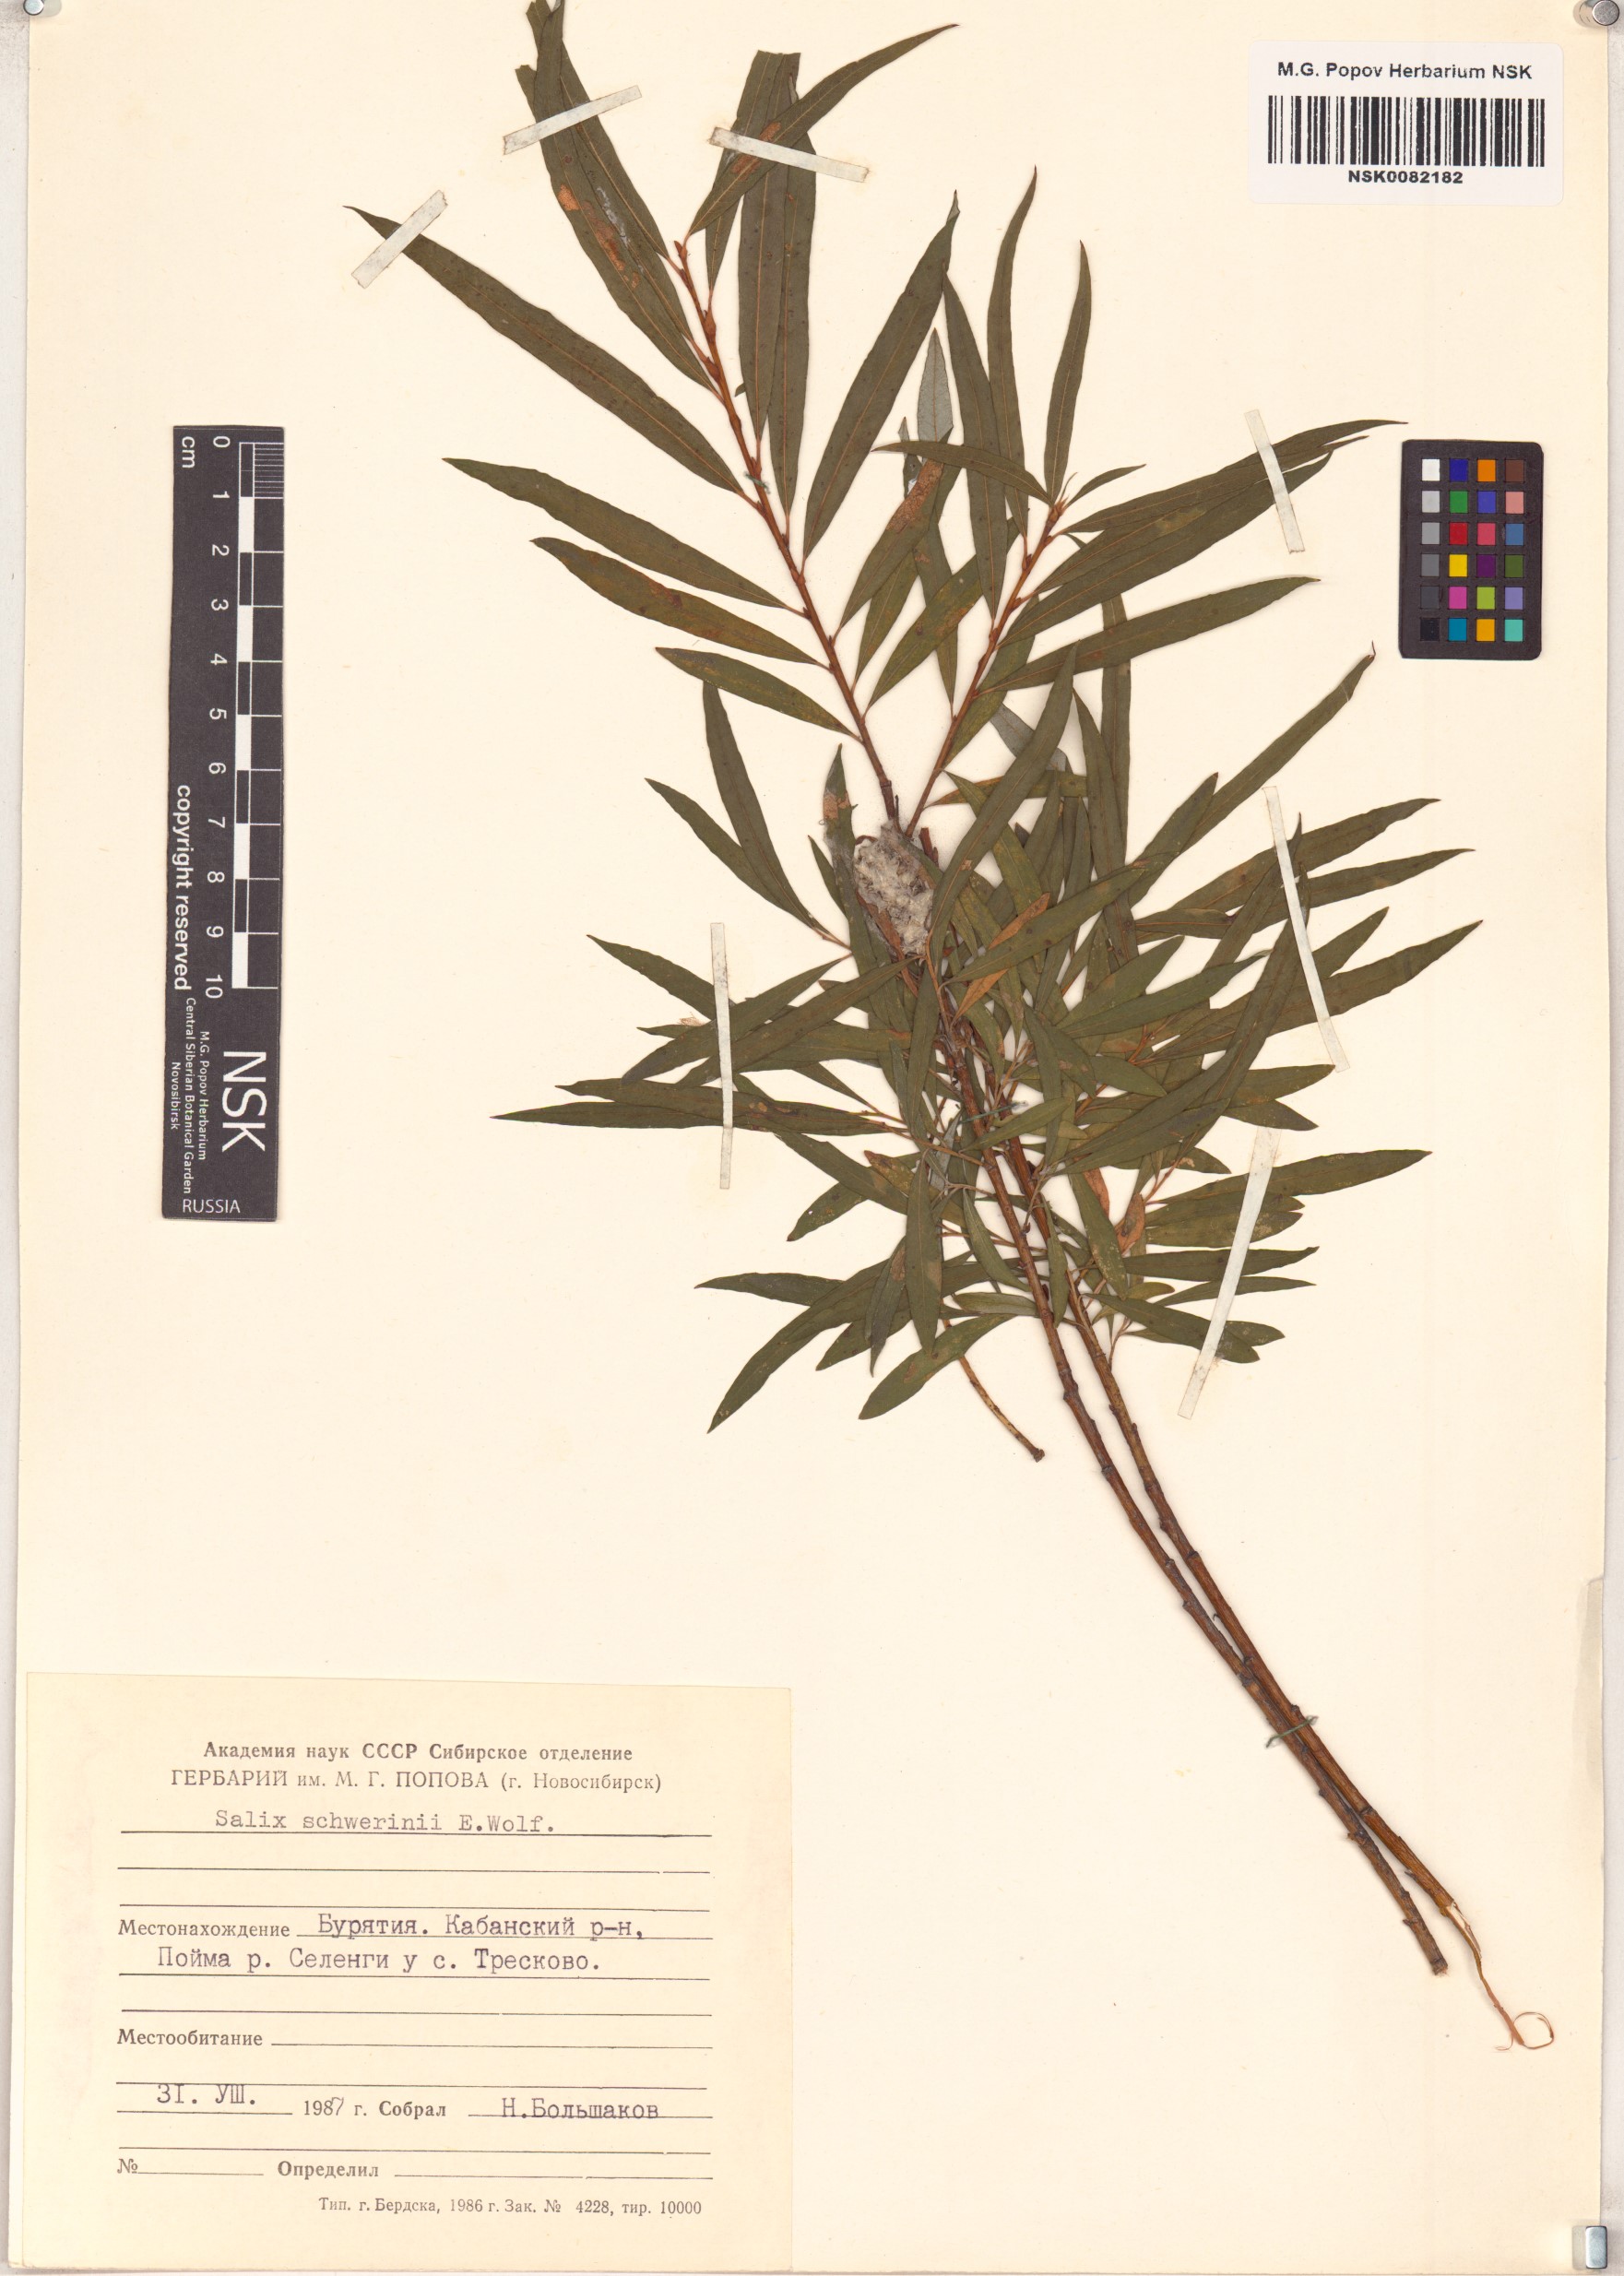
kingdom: Plantae
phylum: Tracheophyta
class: Magnoliopsida
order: Malpighiales
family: Salicaceae
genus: Salix
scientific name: Salix schwerinii
